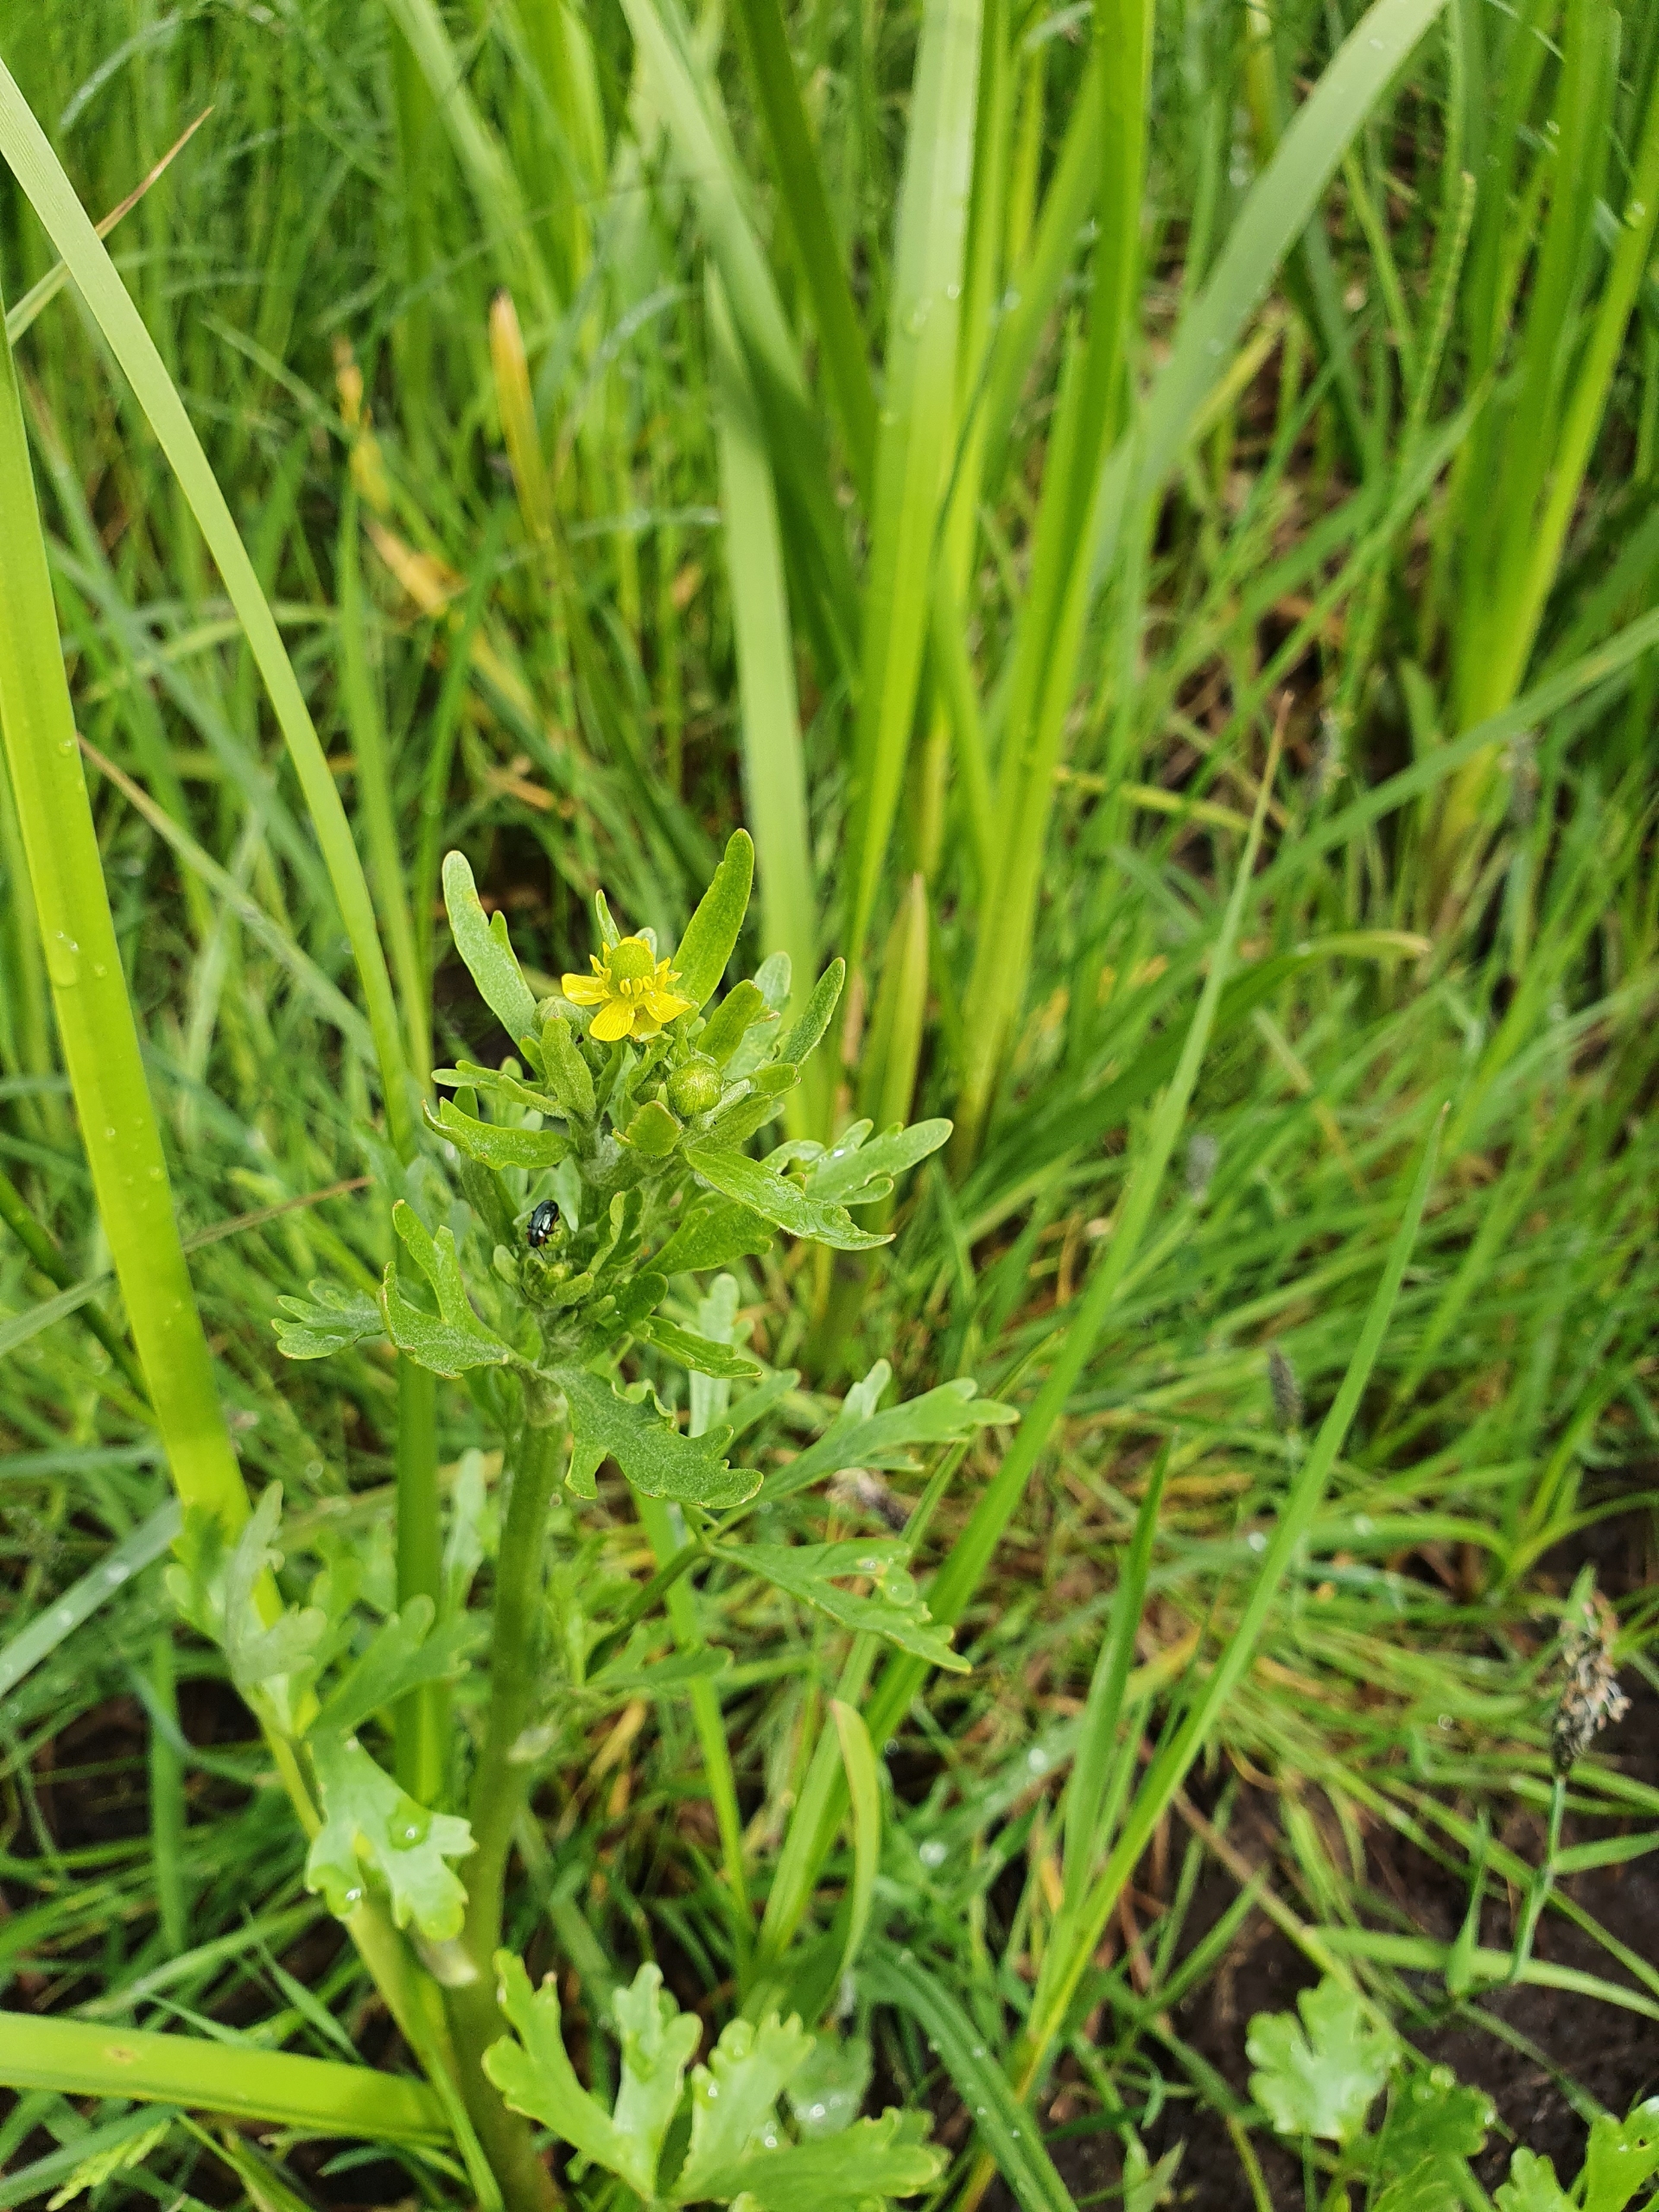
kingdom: Plantae
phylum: Tracheophyta
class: Magnoliopsida
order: Ranunculales
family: Ranunculaceae
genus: Ranunculus
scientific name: Ranunculus sceleratus
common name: Tigger-ranunkel
